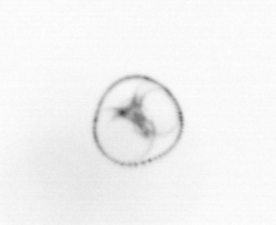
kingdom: Chromista
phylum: Myzozoa
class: Dinophyceae
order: Noctilucales
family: Noctilucaceae
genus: Noctiluca
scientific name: Noctiluca scintillans
